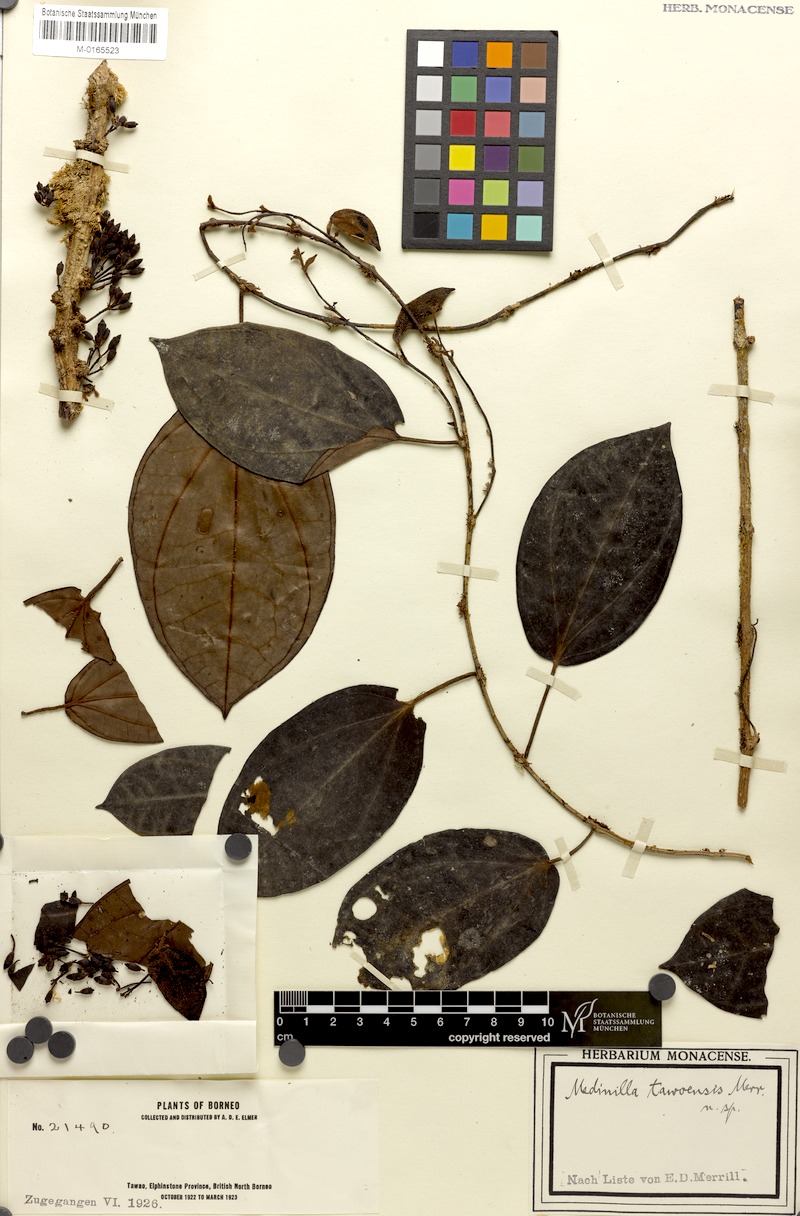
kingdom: Plantae
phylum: Tracheophyta
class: Magnoliopsida
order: Myrtales
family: Melastomataceae
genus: Catanthera
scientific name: Catanthera tawaensis
